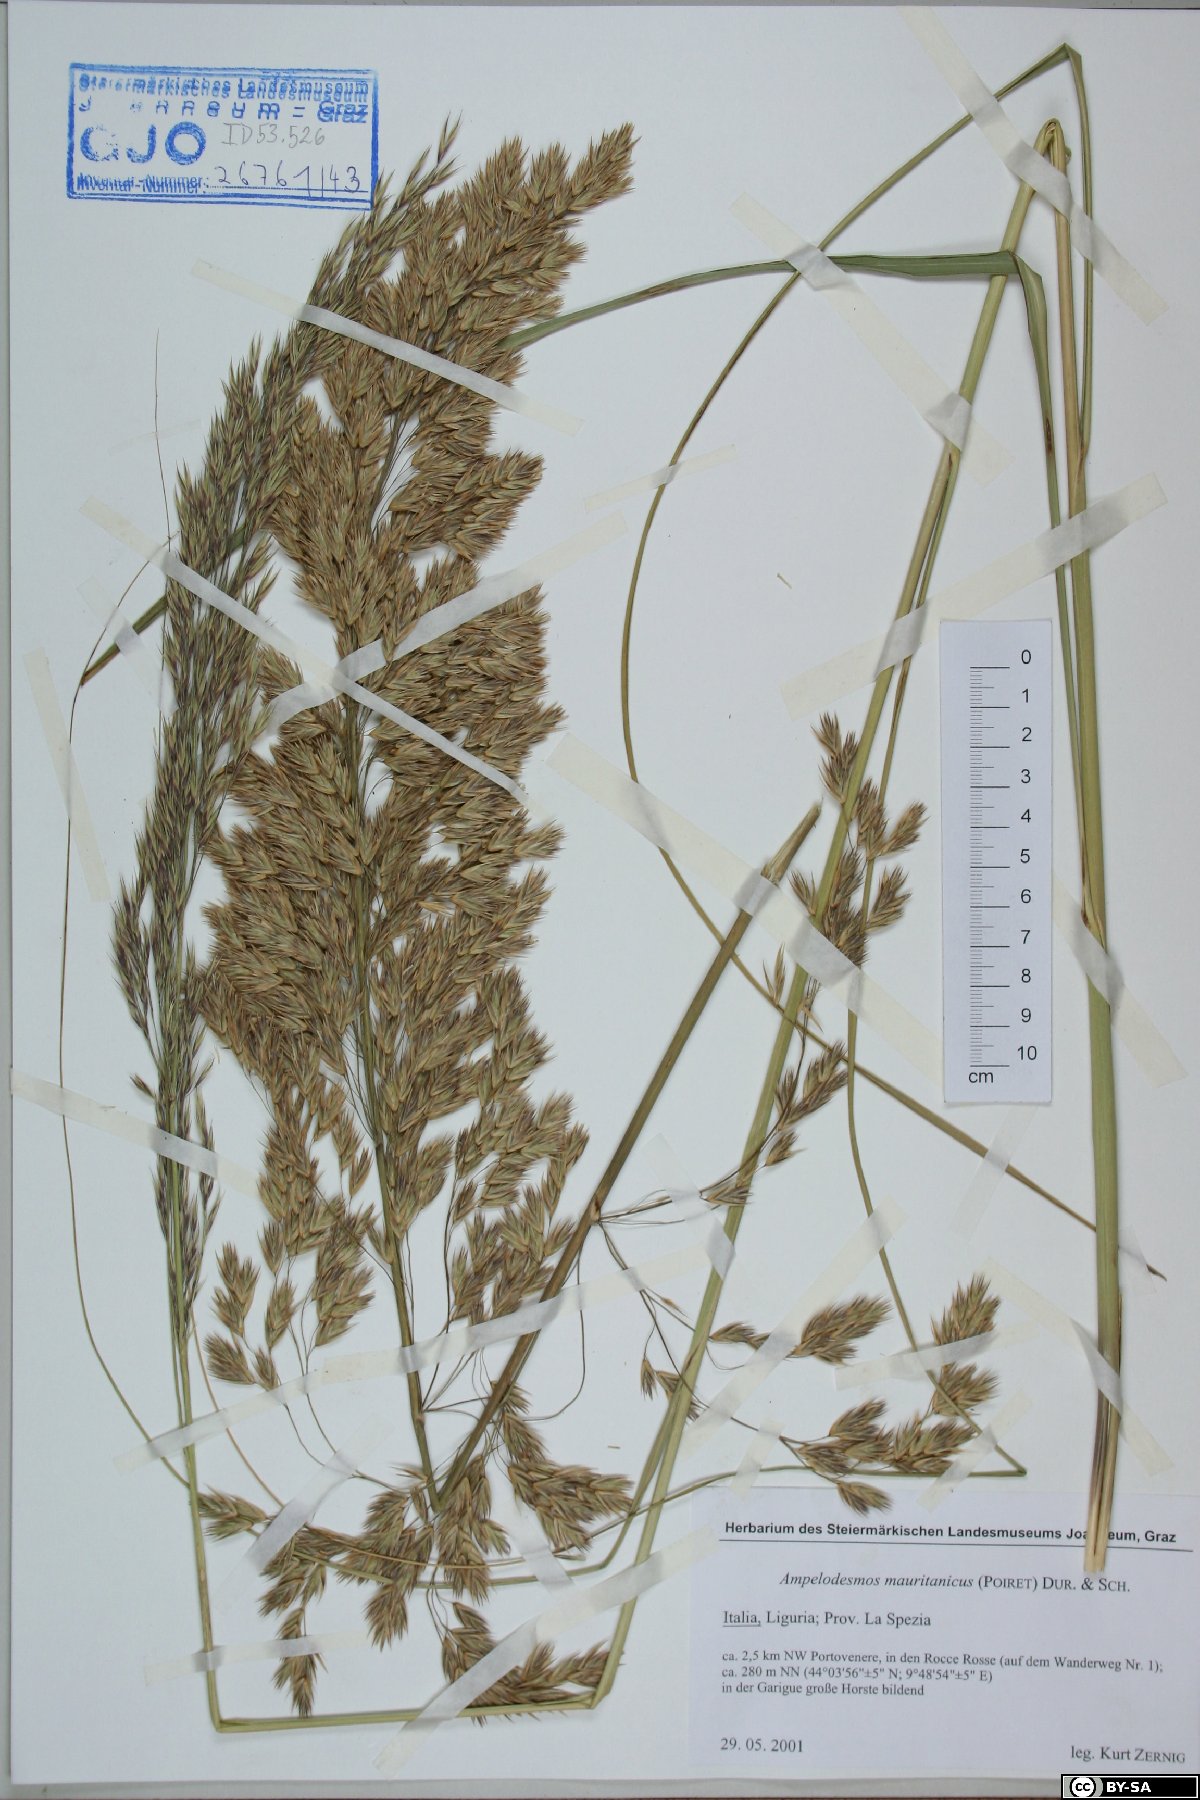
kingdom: Plantae
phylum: Tracheophyta
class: Liliopsida
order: Poales
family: Poaceae
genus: Ampelodesmos
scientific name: Ampelodesmos mauritanicus
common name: Mauritanian grass
